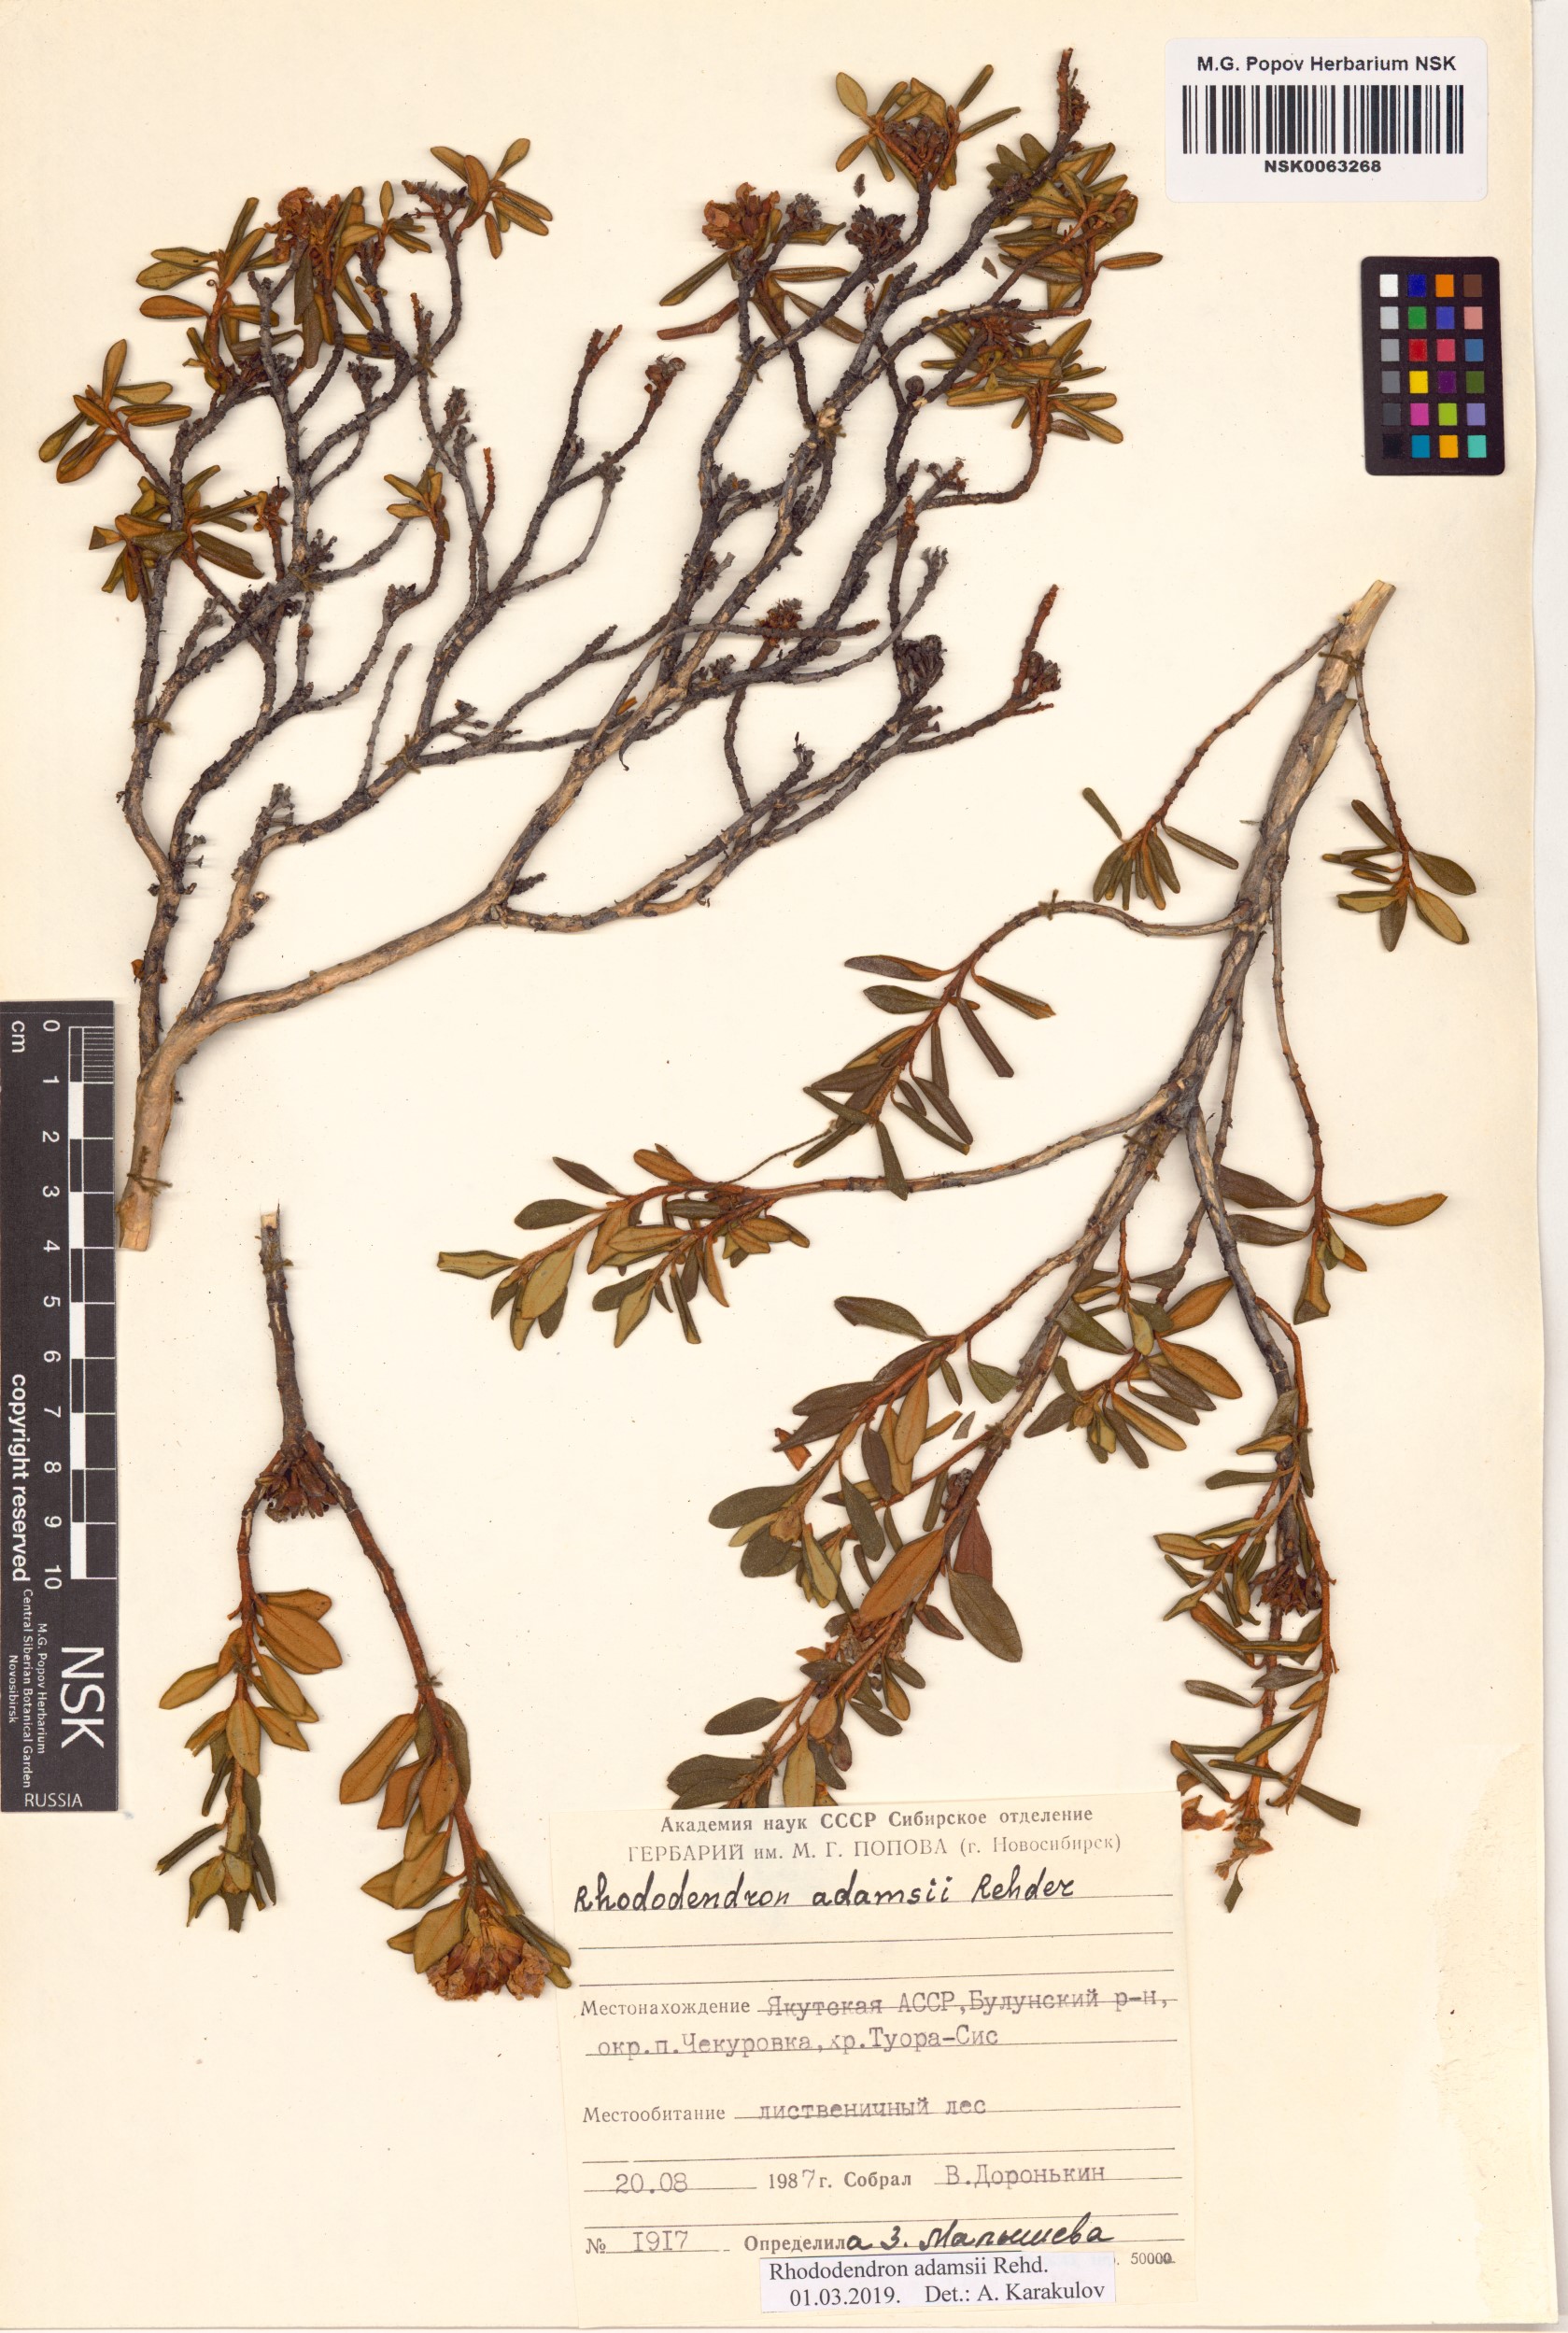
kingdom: Plantae
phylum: Tracheophyta
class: Magnoliopsida
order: Ericales
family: Ericaceae
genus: Rhododendron
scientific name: Rhododendron adamsii
